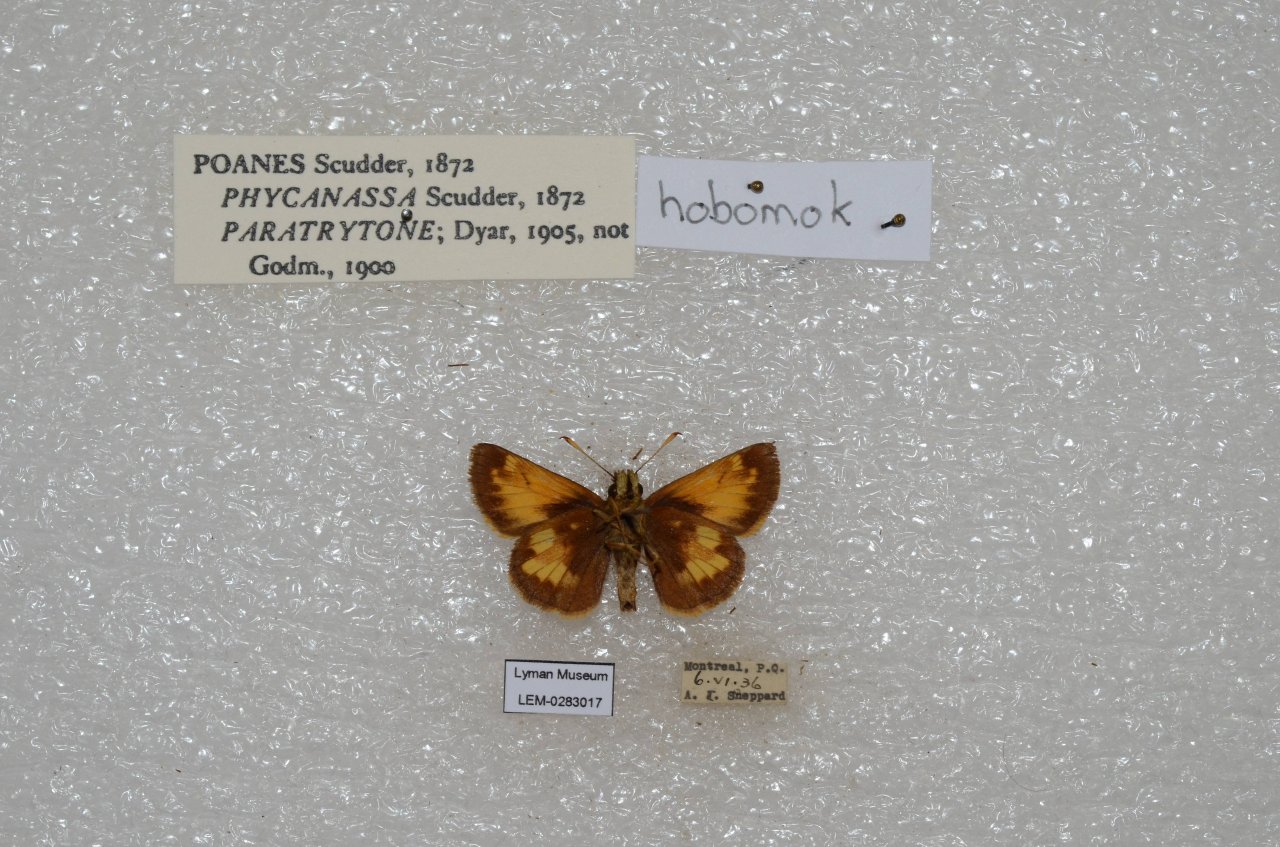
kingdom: Animalia
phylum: Arthropoda
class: Insecta
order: Lepidoptera
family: Hesperiidae
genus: Lon
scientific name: Lon hobomok
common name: Hobomok Skipper
